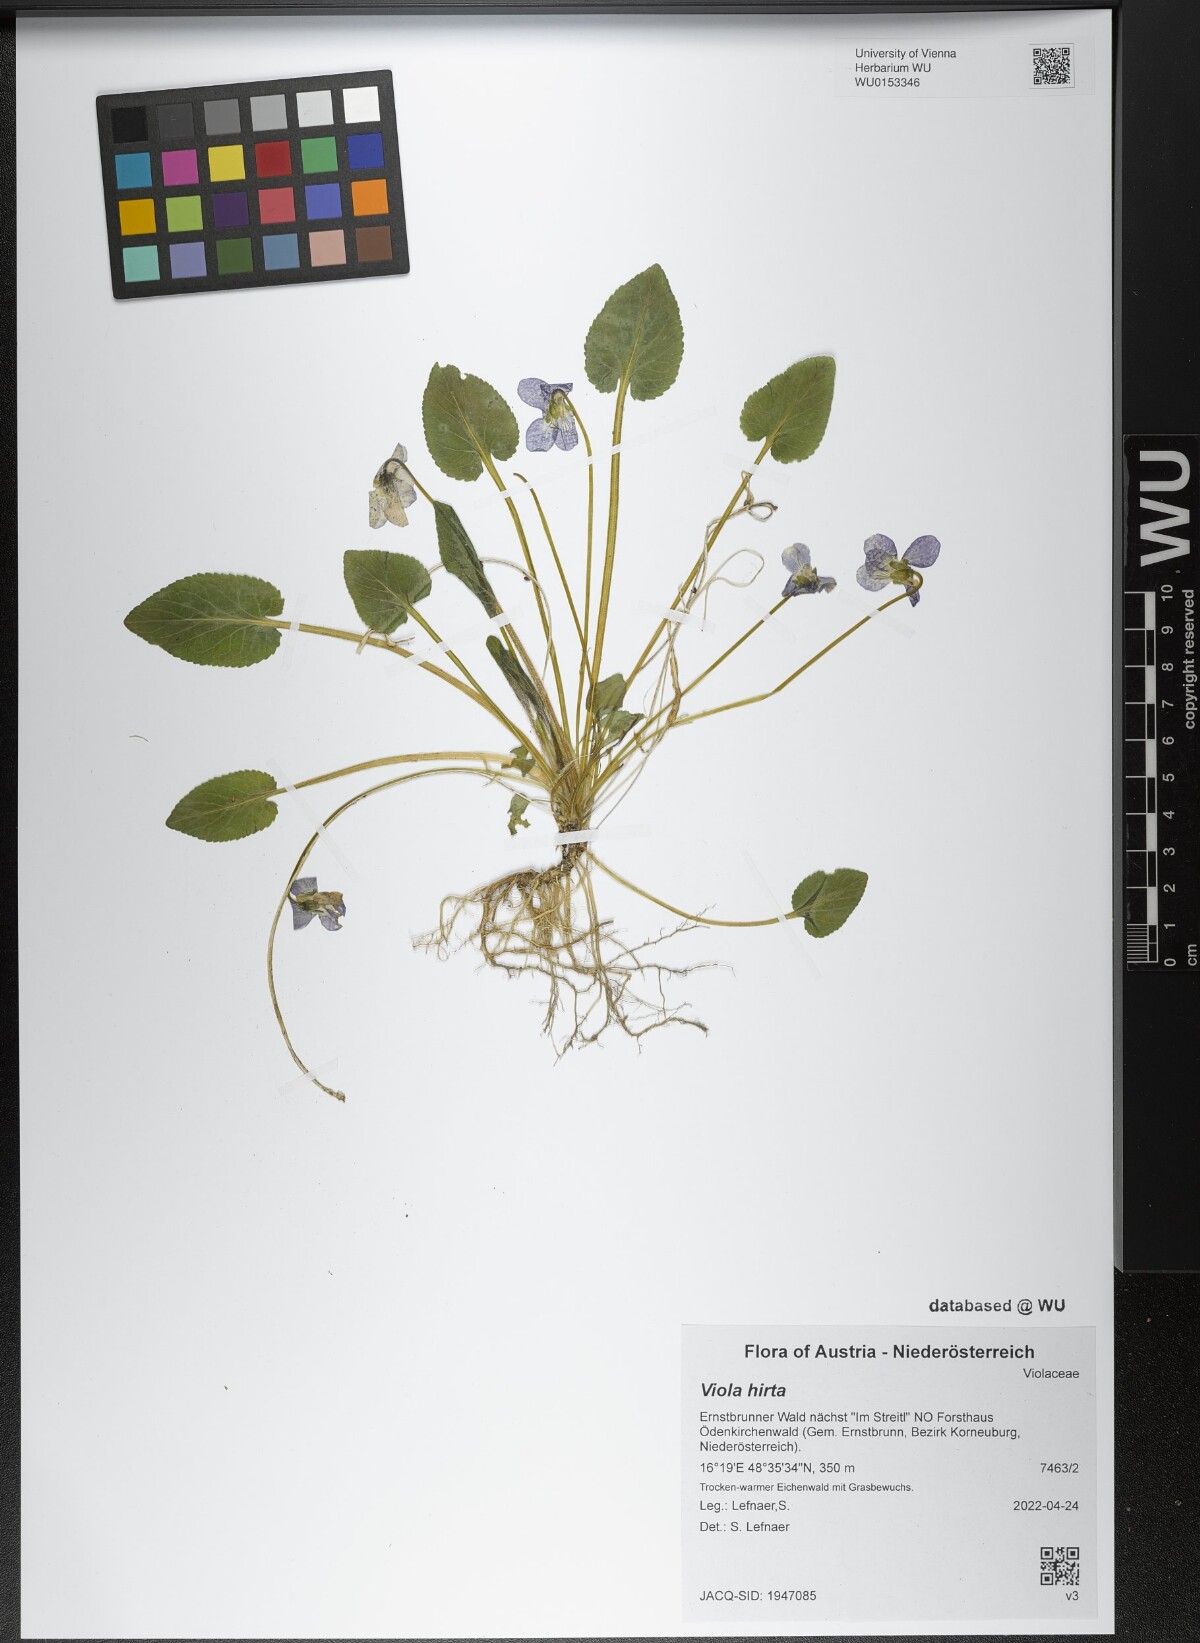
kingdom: Plantae
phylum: Tracheophyta
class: Magnoliopsida
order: Malpighiales
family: Violaceae
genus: Viola
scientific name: Viola hirta
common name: Hairy violet
